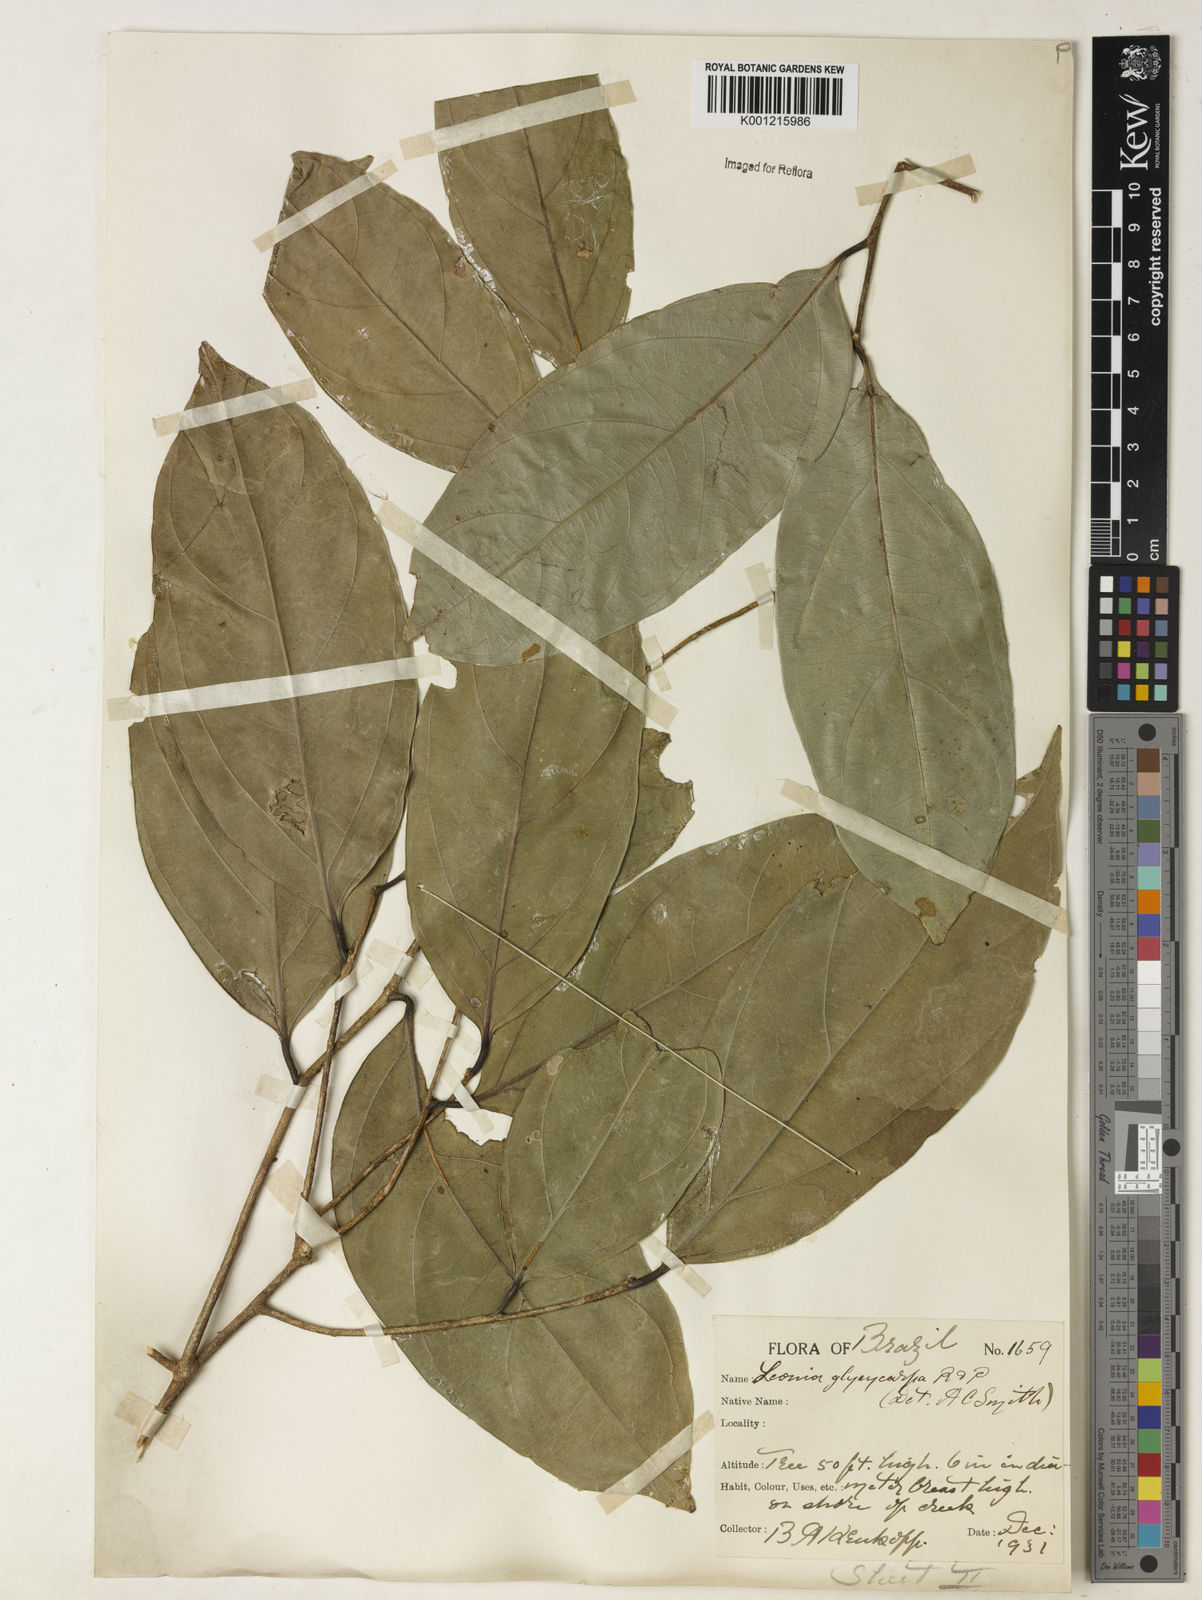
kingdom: Plantae
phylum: Tracheophyta
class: Magnoliopsida
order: Malpighiales
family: Violaceae
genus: Leonia
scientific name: Leonia glycycarpa
